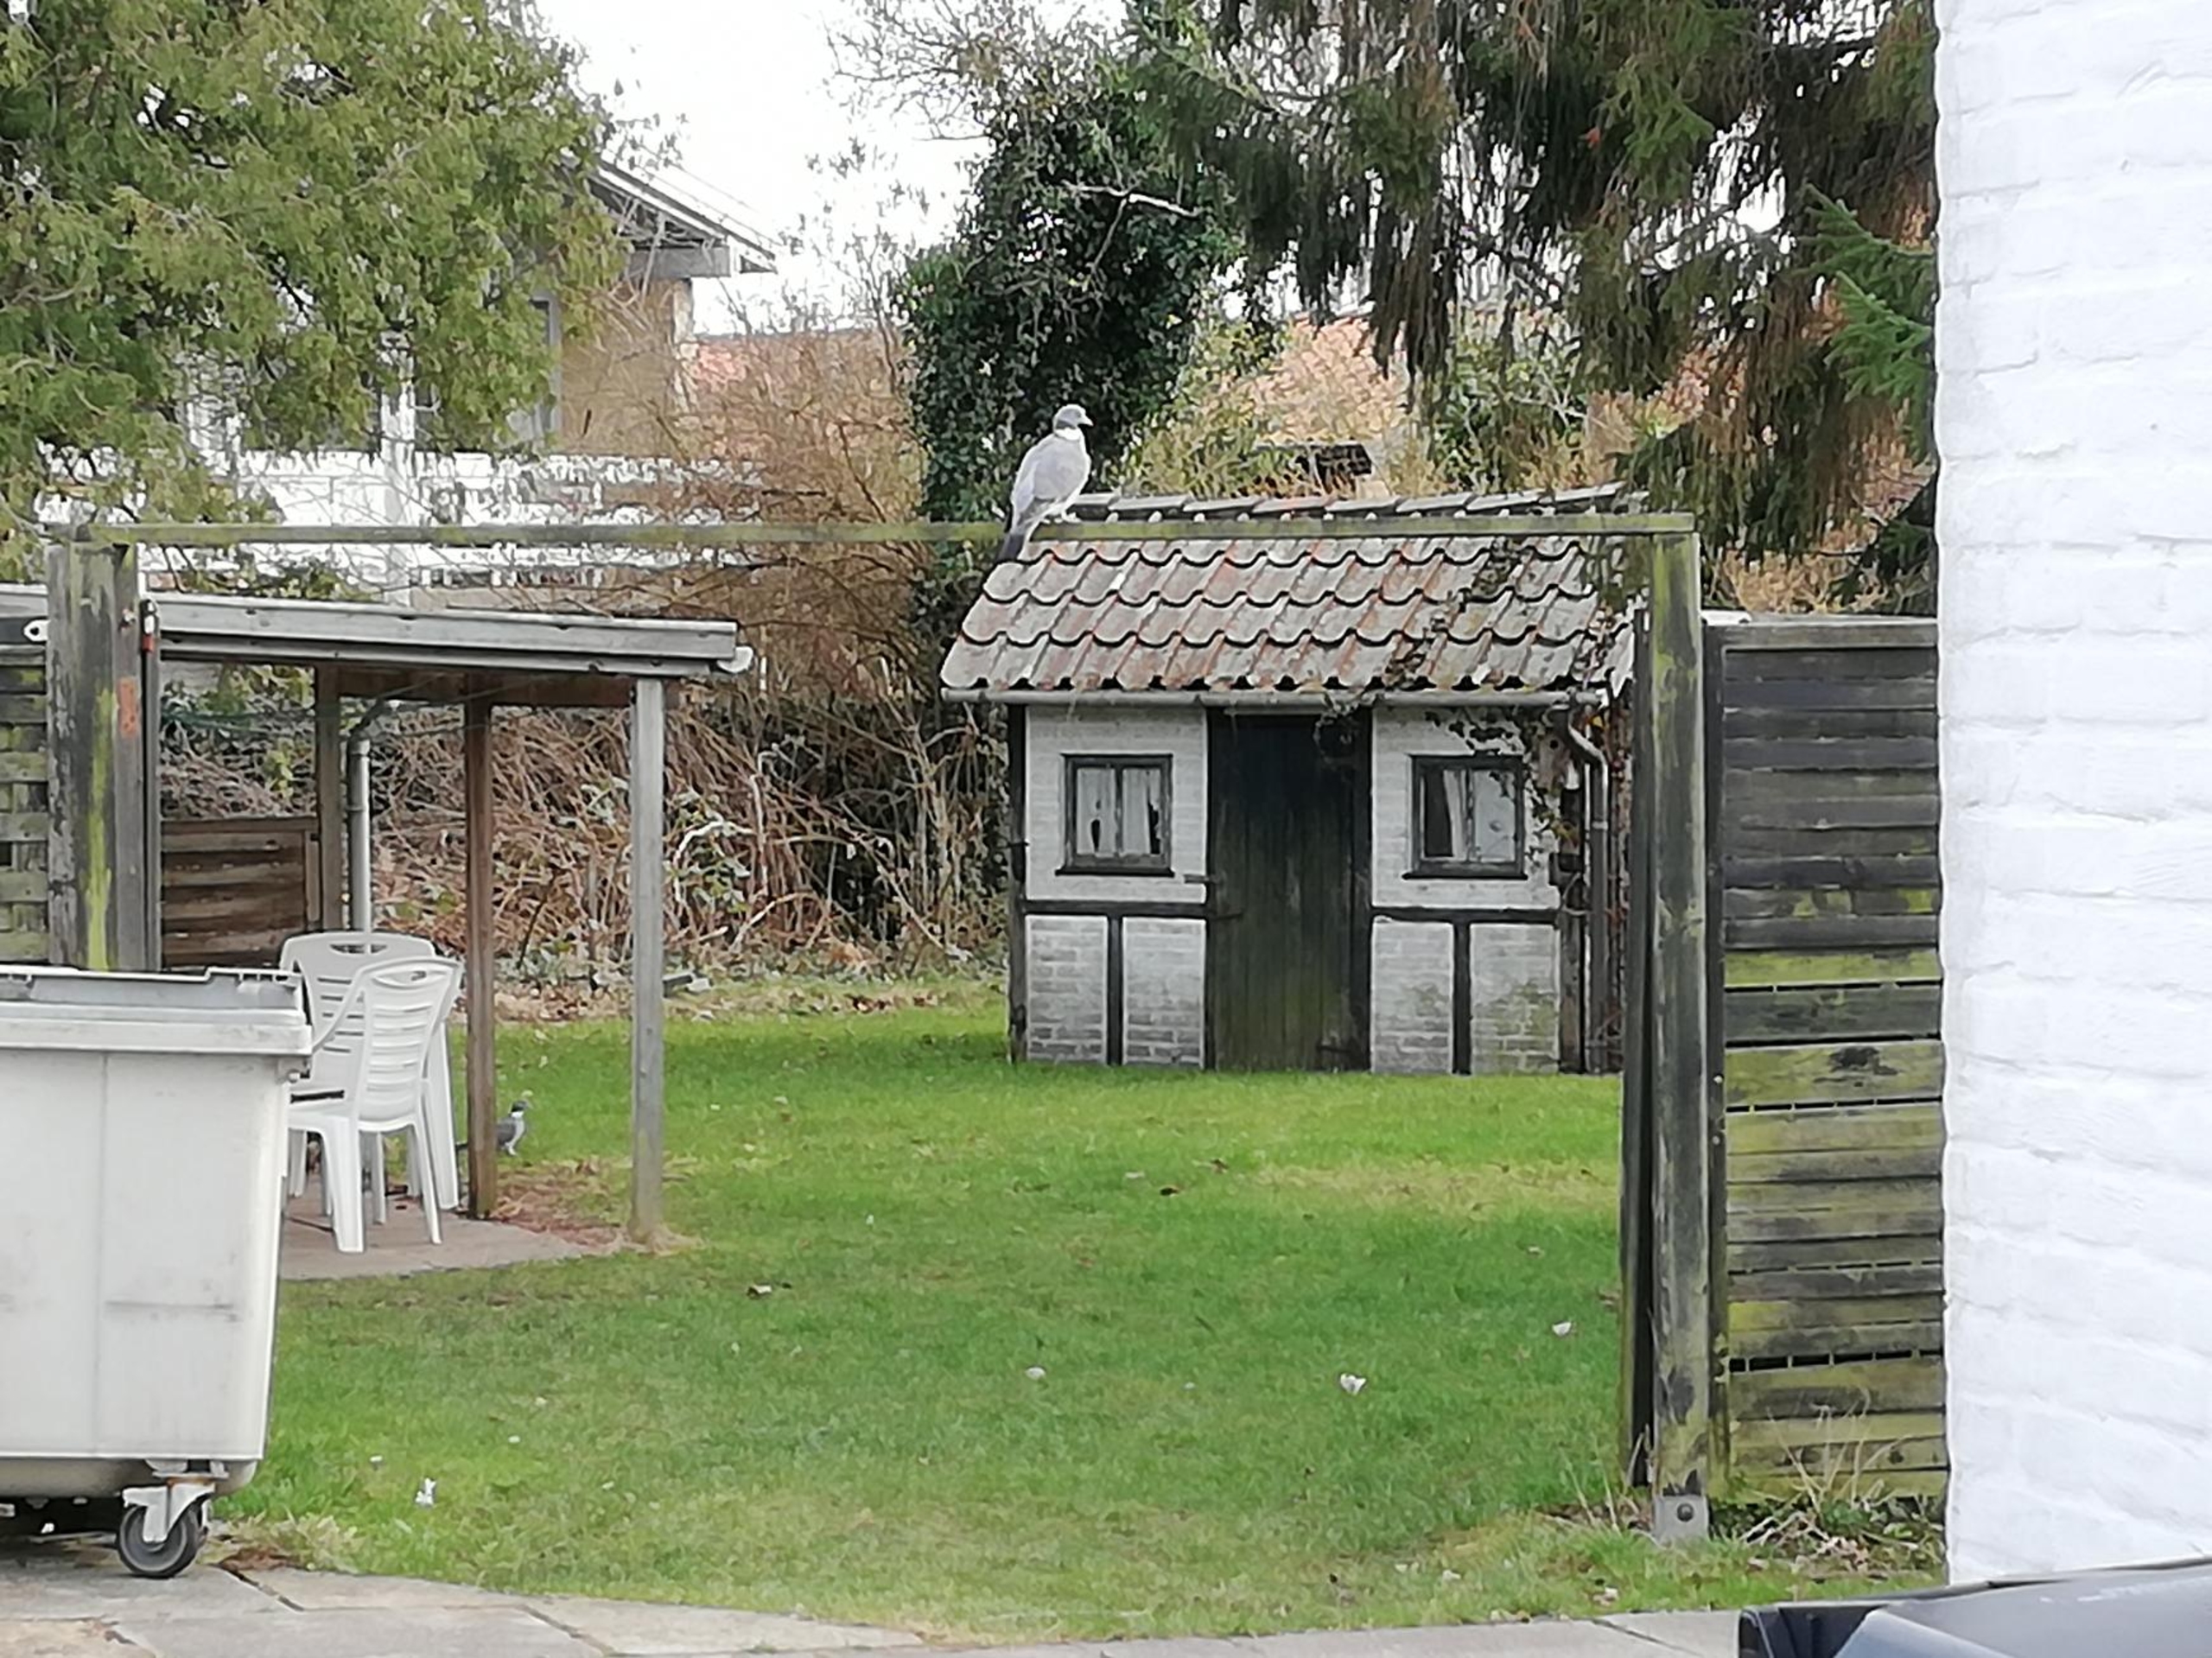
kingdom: Animalia
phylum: Chordata
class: Aves
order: Columbiformes
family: Columbidae
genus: Columba
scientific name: Columba palumbus
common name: Ringdue
